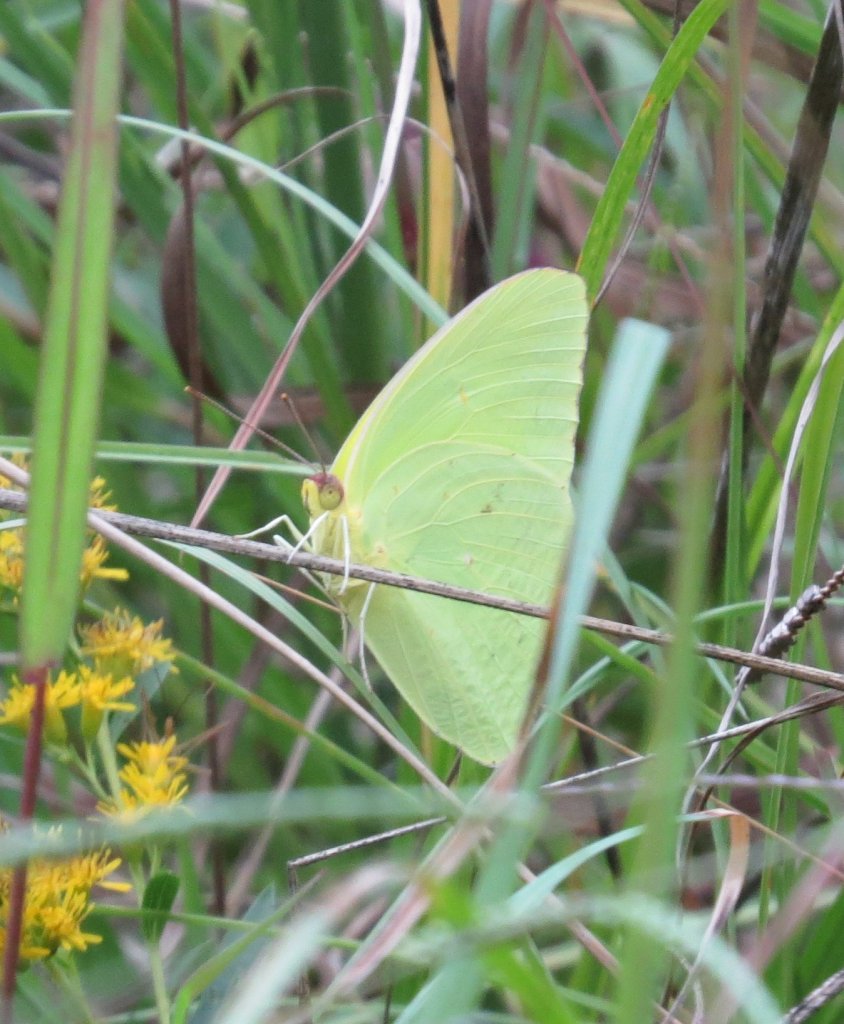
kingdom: Animalia
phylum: Arthropoda
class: Insecta
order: Lepidoptera
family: Pieridae
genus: Phoebis
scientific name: Phoebis sennae
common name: Cloudless Sulphur
